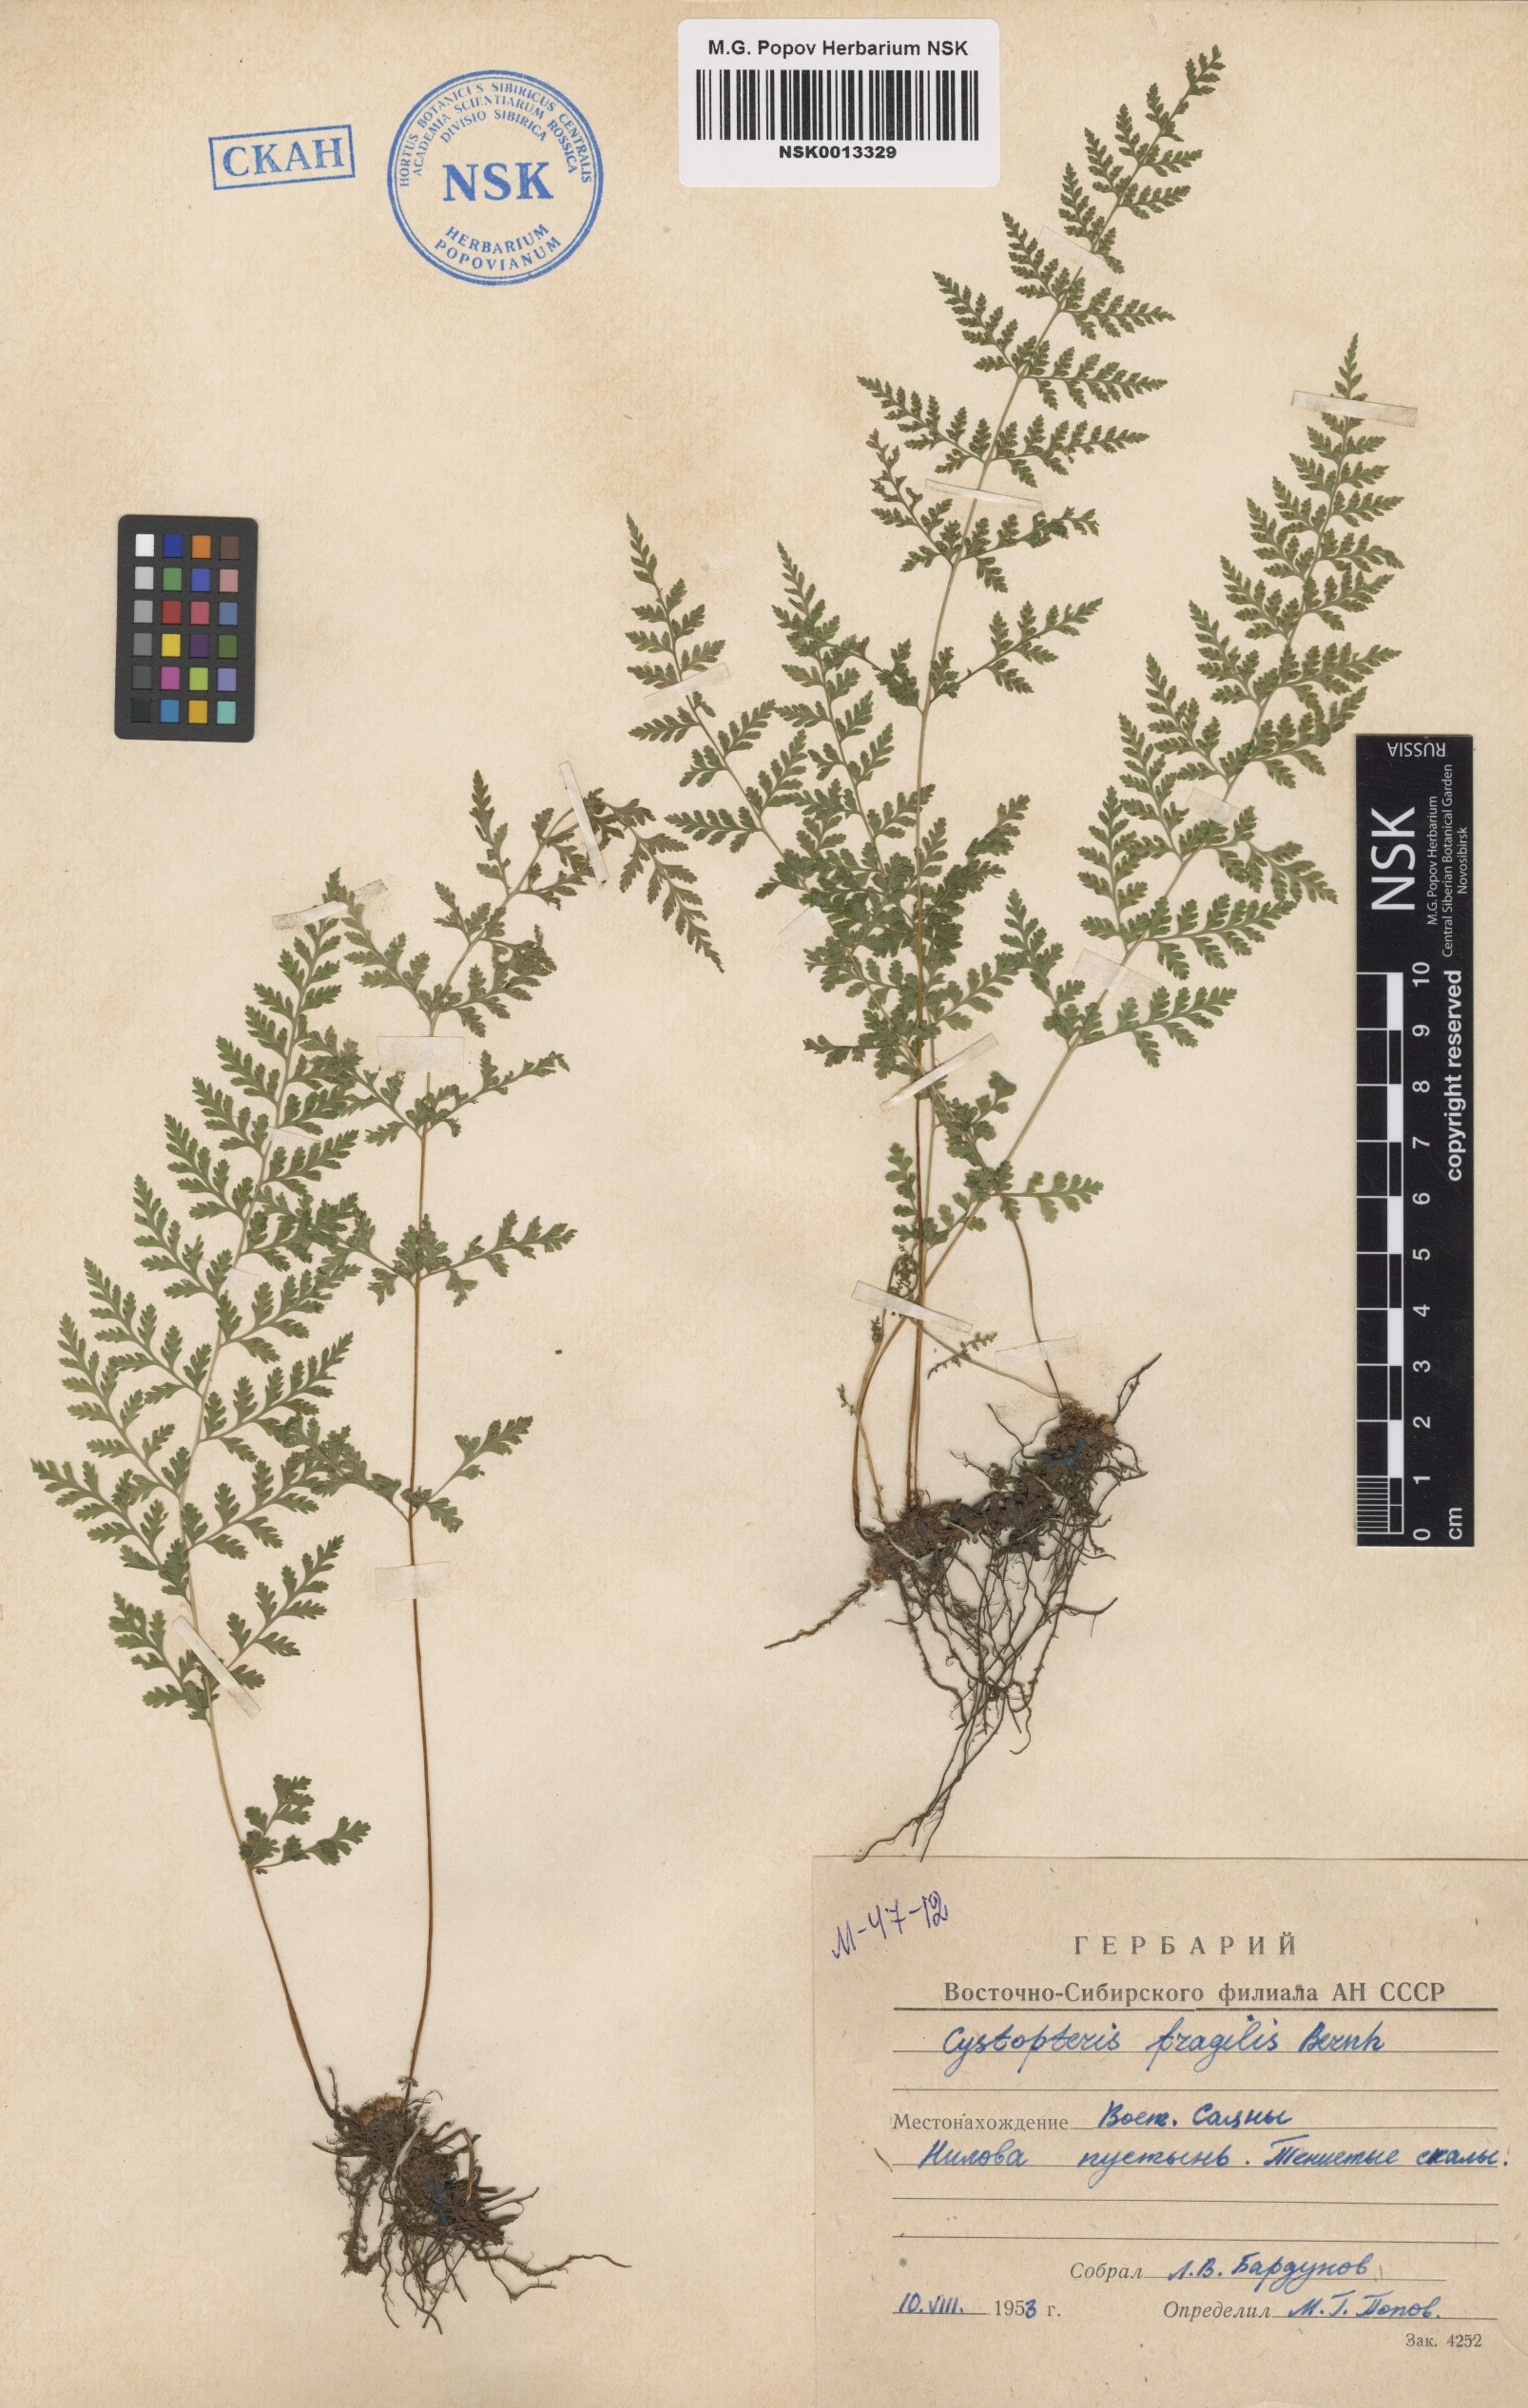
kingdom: Plantae
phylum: Tracheophyta
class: Polypodiopsida
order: Polypodiales
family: Cystopteridaceae
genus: Cystopteris
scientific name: Cystopteris fragilis
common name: Brittle bladder fern
